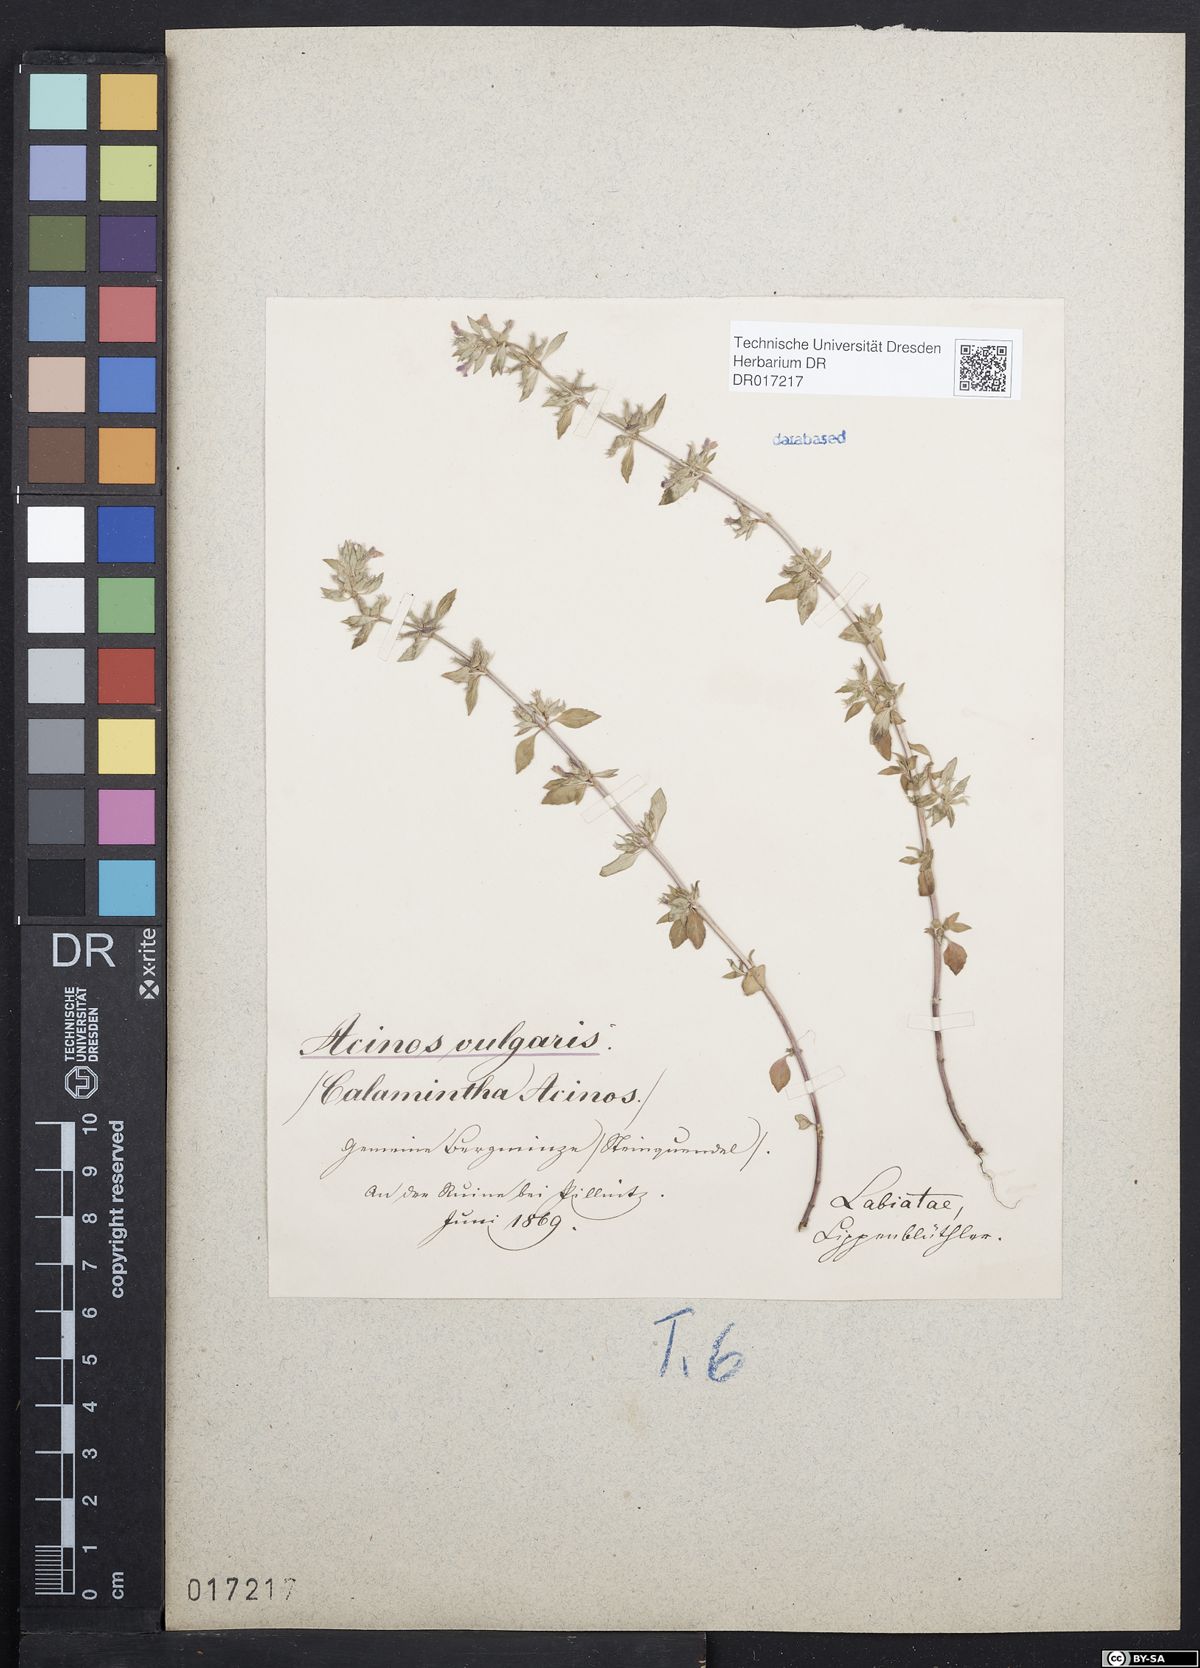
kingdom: Plantae
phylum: Tracheophyta
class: Magnoliopsida
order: Lamiales
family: Lamiaceae
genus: Clinopodium
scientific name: Clinopodium acinos
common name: Basil thyme
